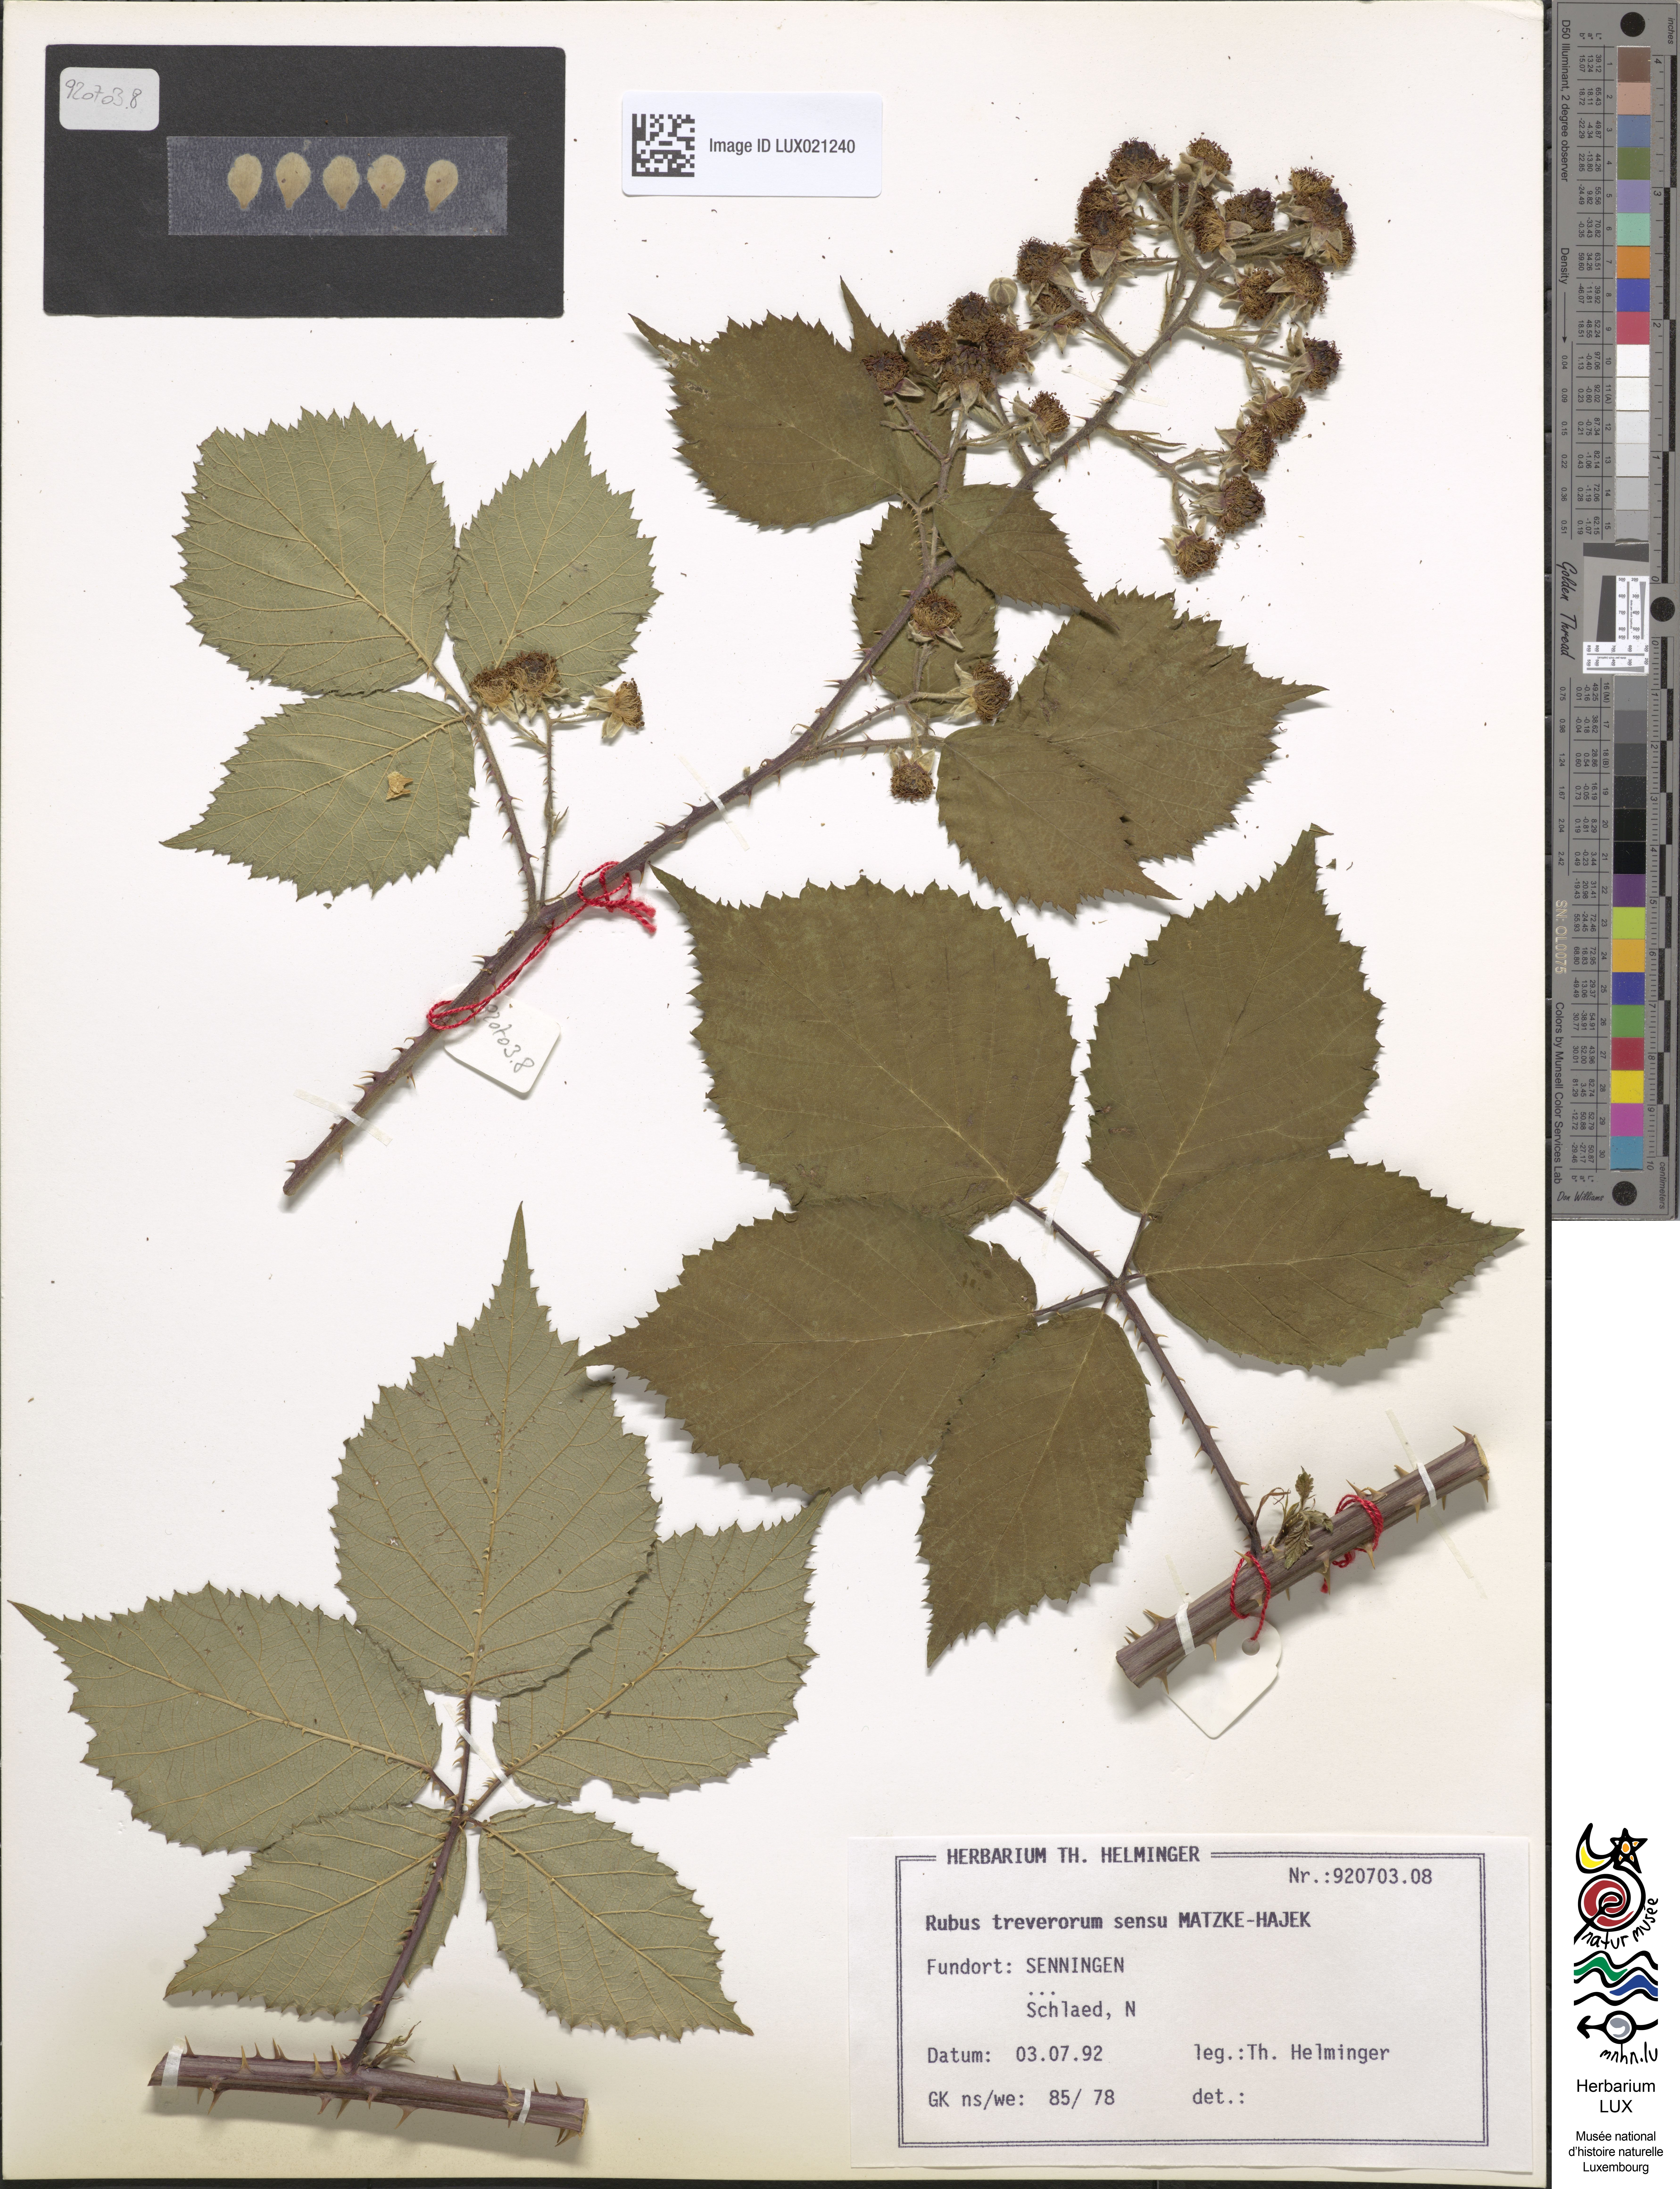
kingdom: Plantae
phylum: Tracheophyta
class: Magnoliopsida
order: Rosales
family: Rosaceae
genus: Rubus
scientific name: Rubus
